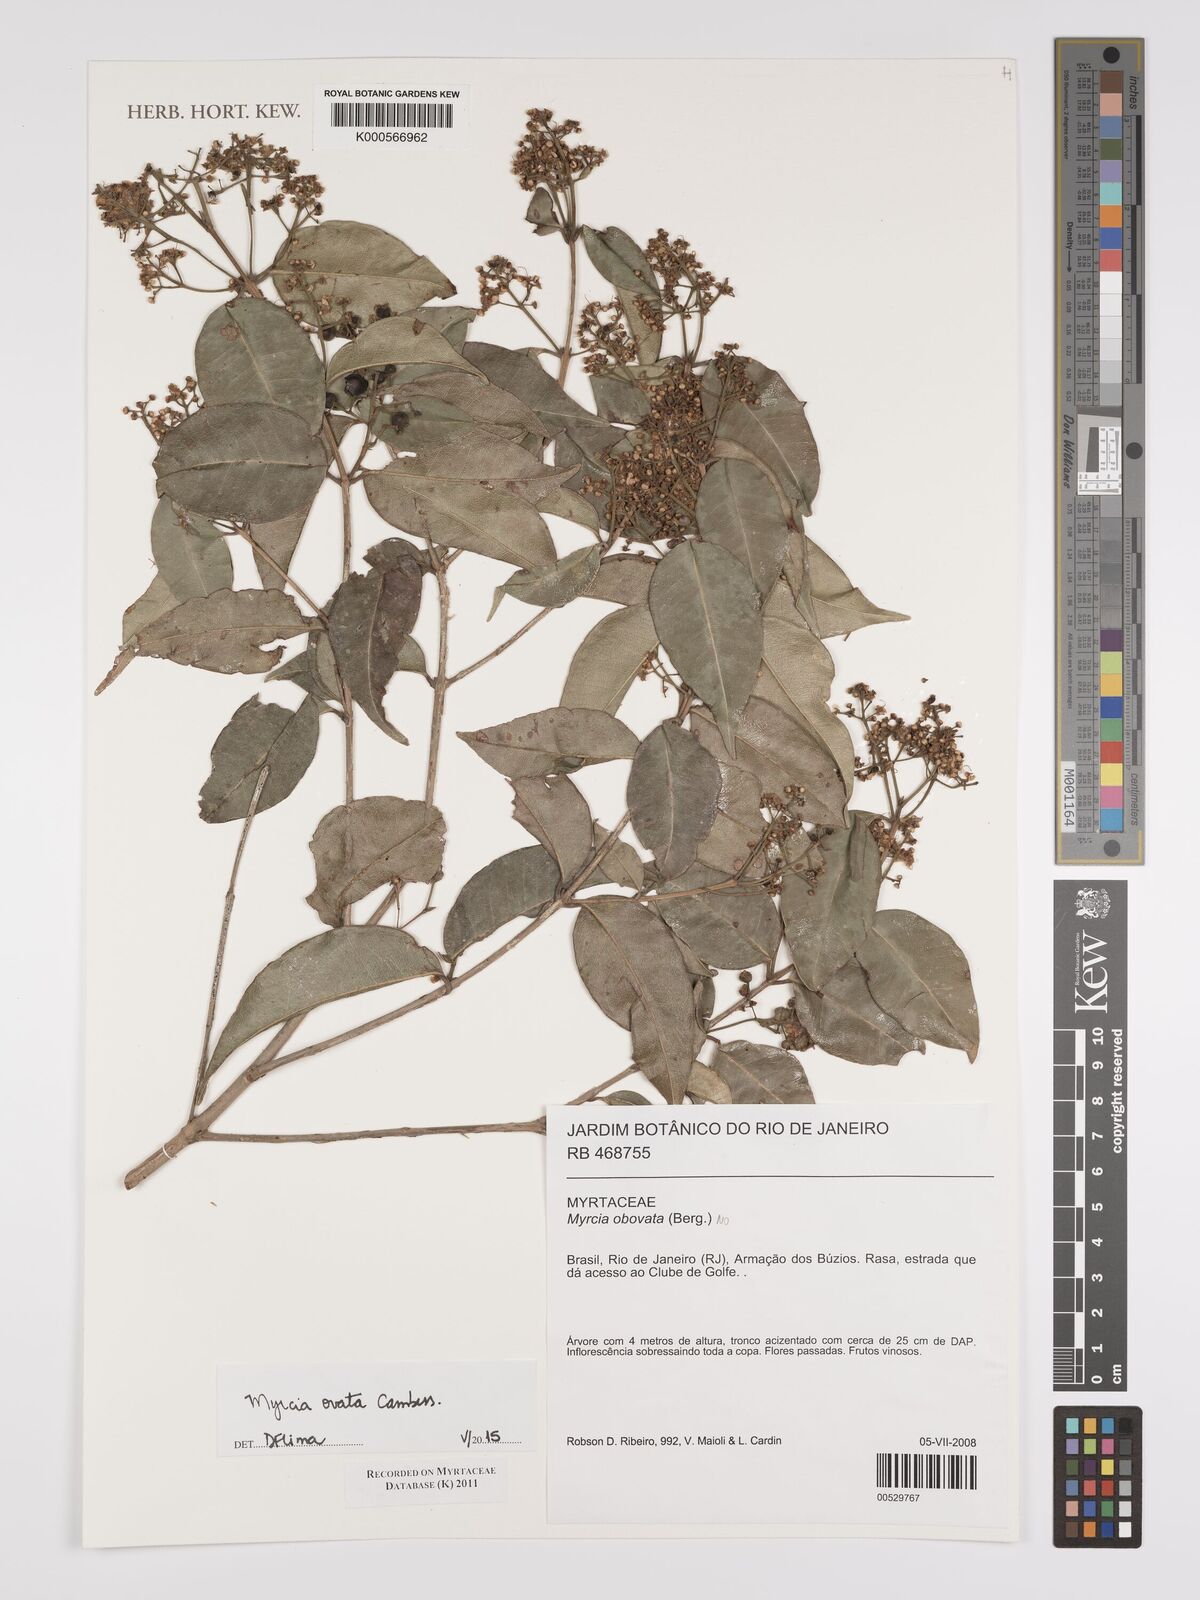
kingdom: Plantae
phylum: Tracheophyta
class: Magnoliopsida
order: Myrtales
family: Myrtaceae
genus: Myrcia
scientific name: Myrcia ovata
